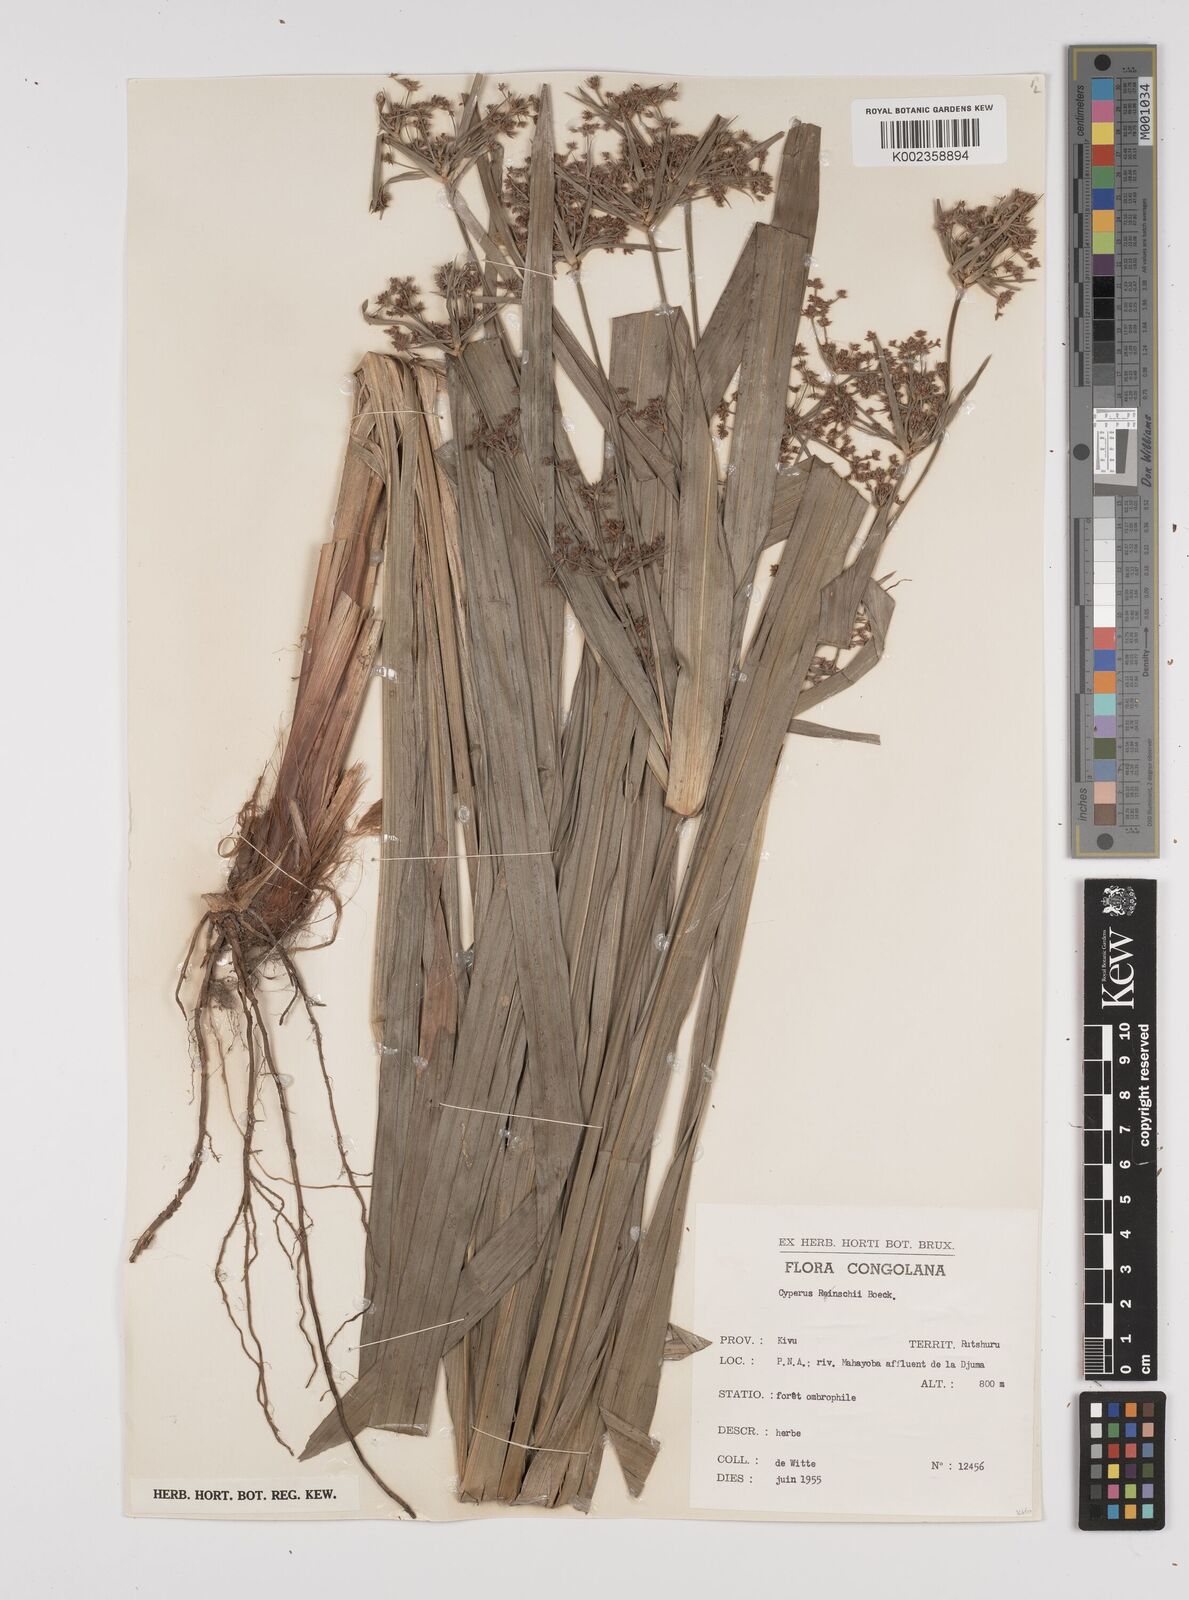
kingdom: Plantae
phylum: Tracheophyta
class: Liliopsida
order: Poales
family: Cyperaceae
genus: Cyperus
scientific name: Cyperus renschii
